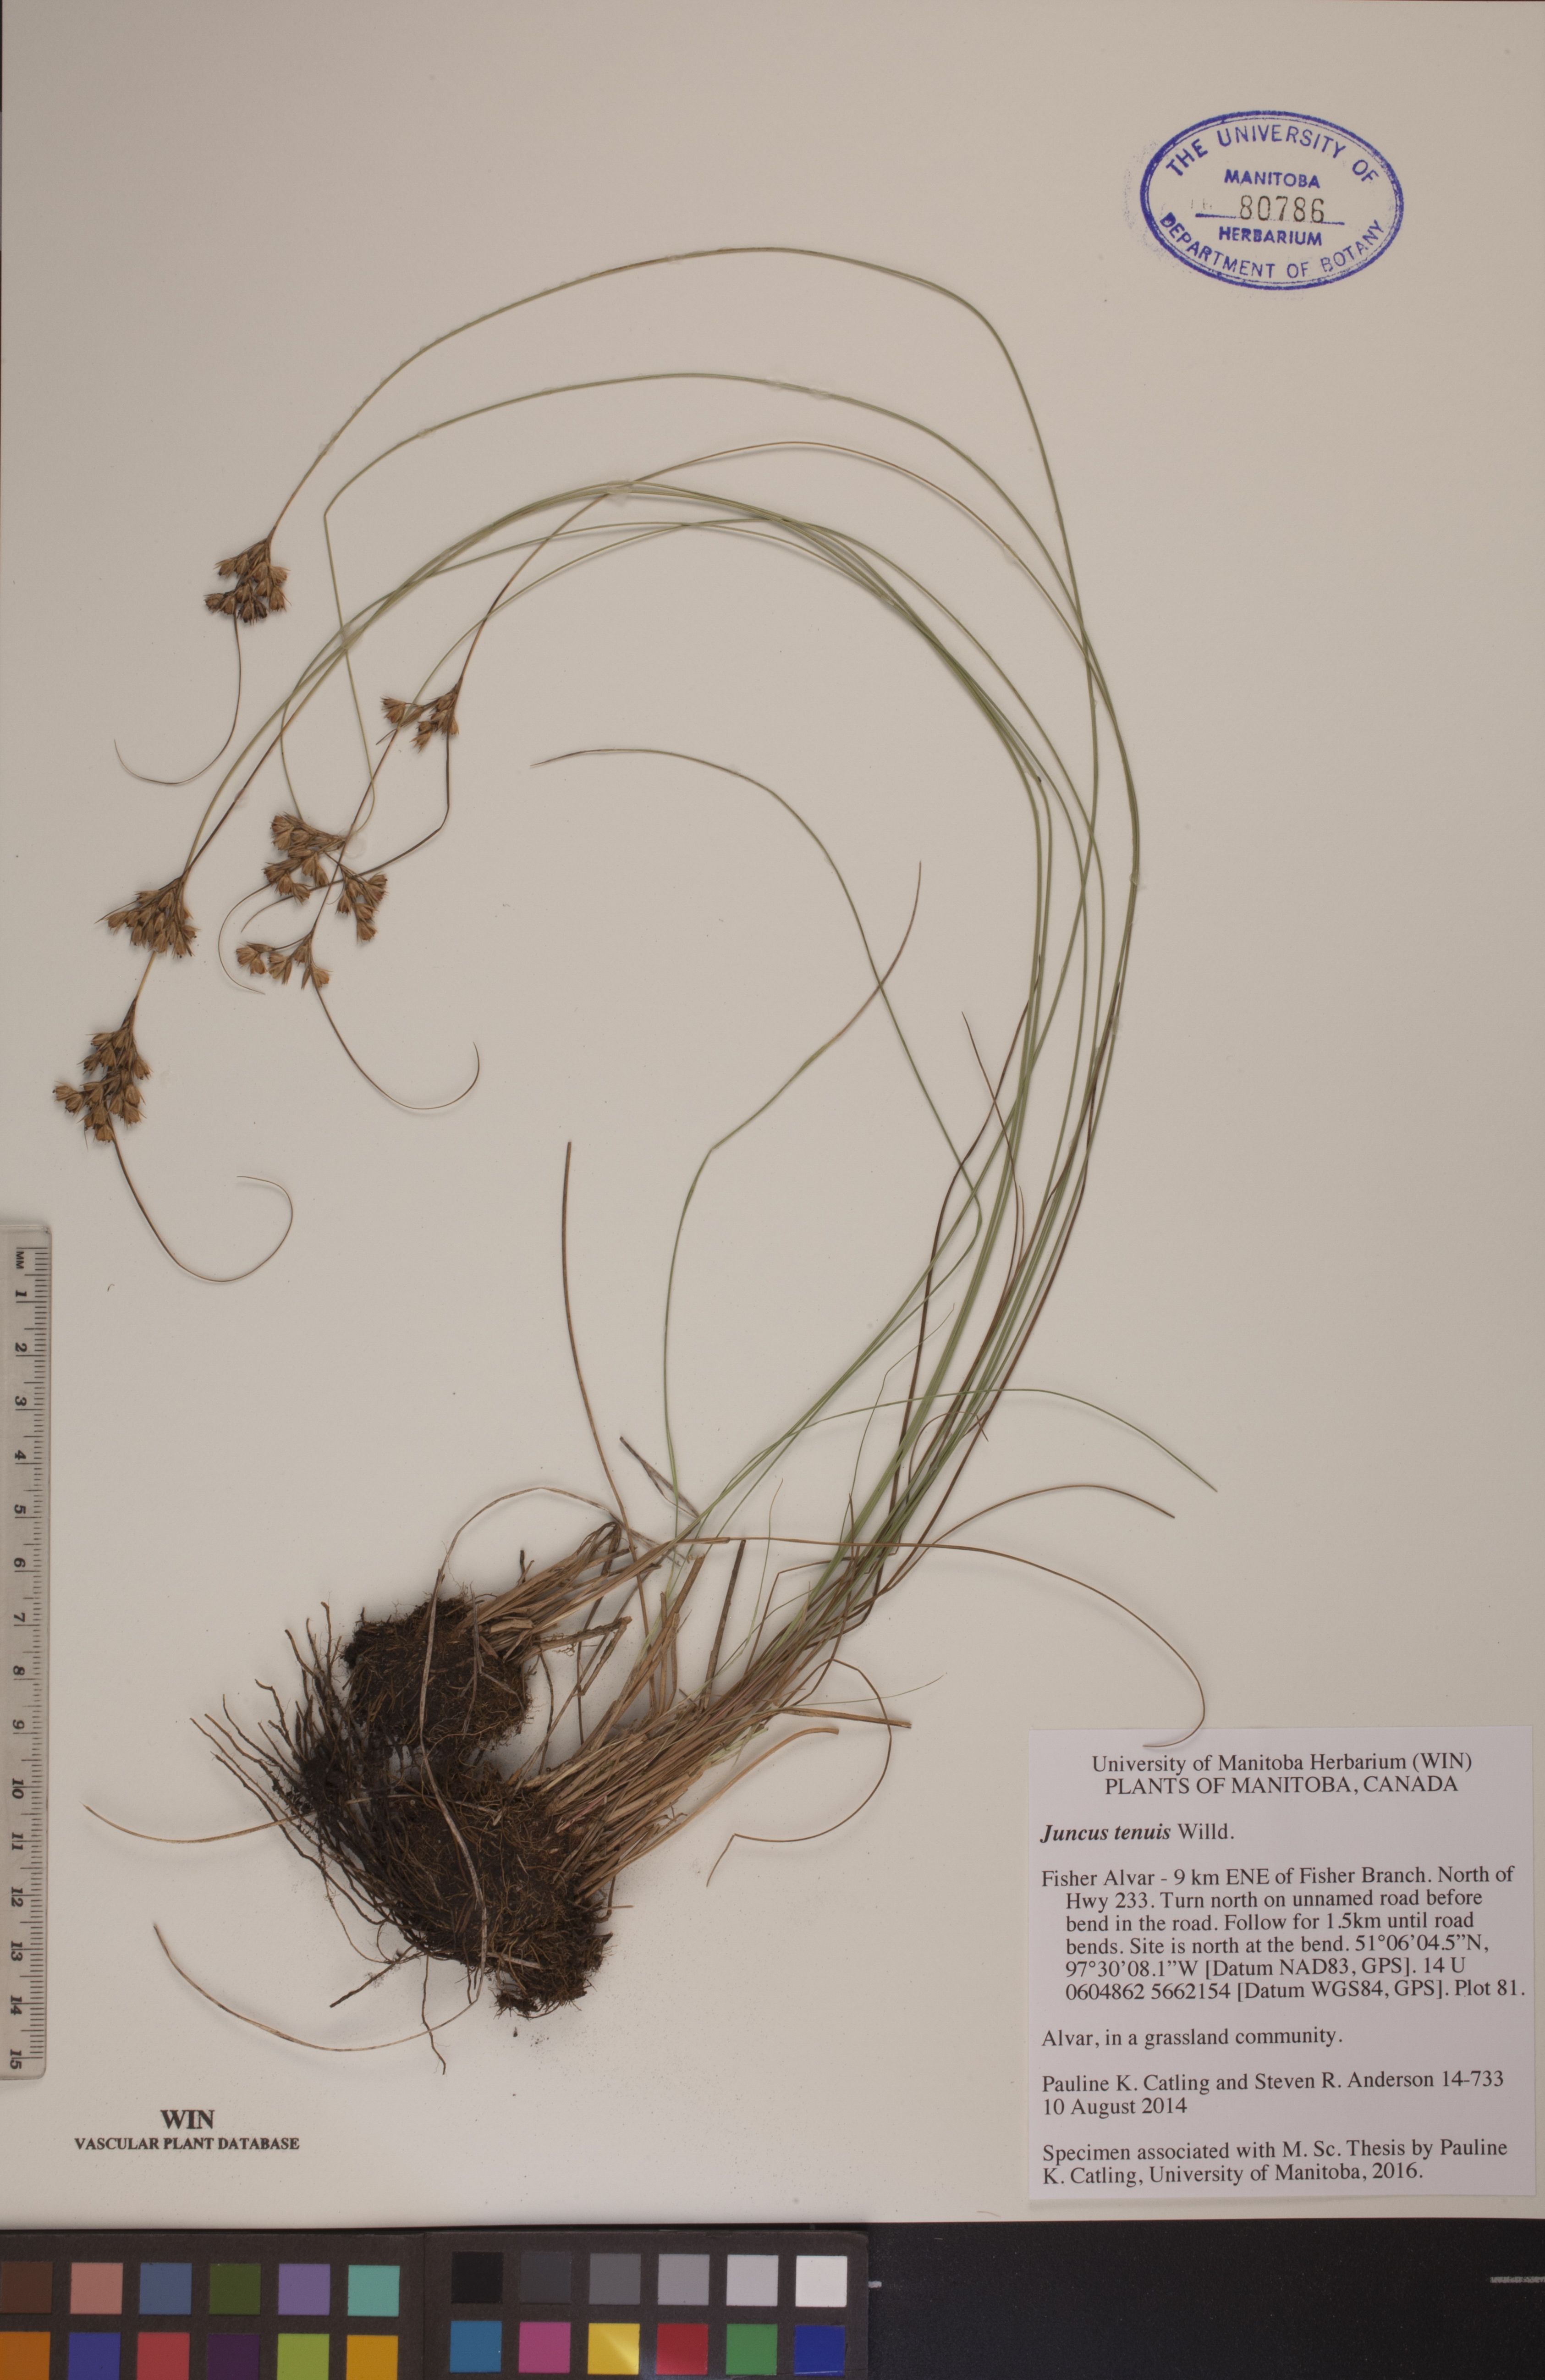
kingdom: Plantae
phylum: Tracheophyta
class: Liliopsida
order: Poales
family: Juncaceae
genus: Juncus
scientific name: Juncus tenuis
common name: Slender rush
